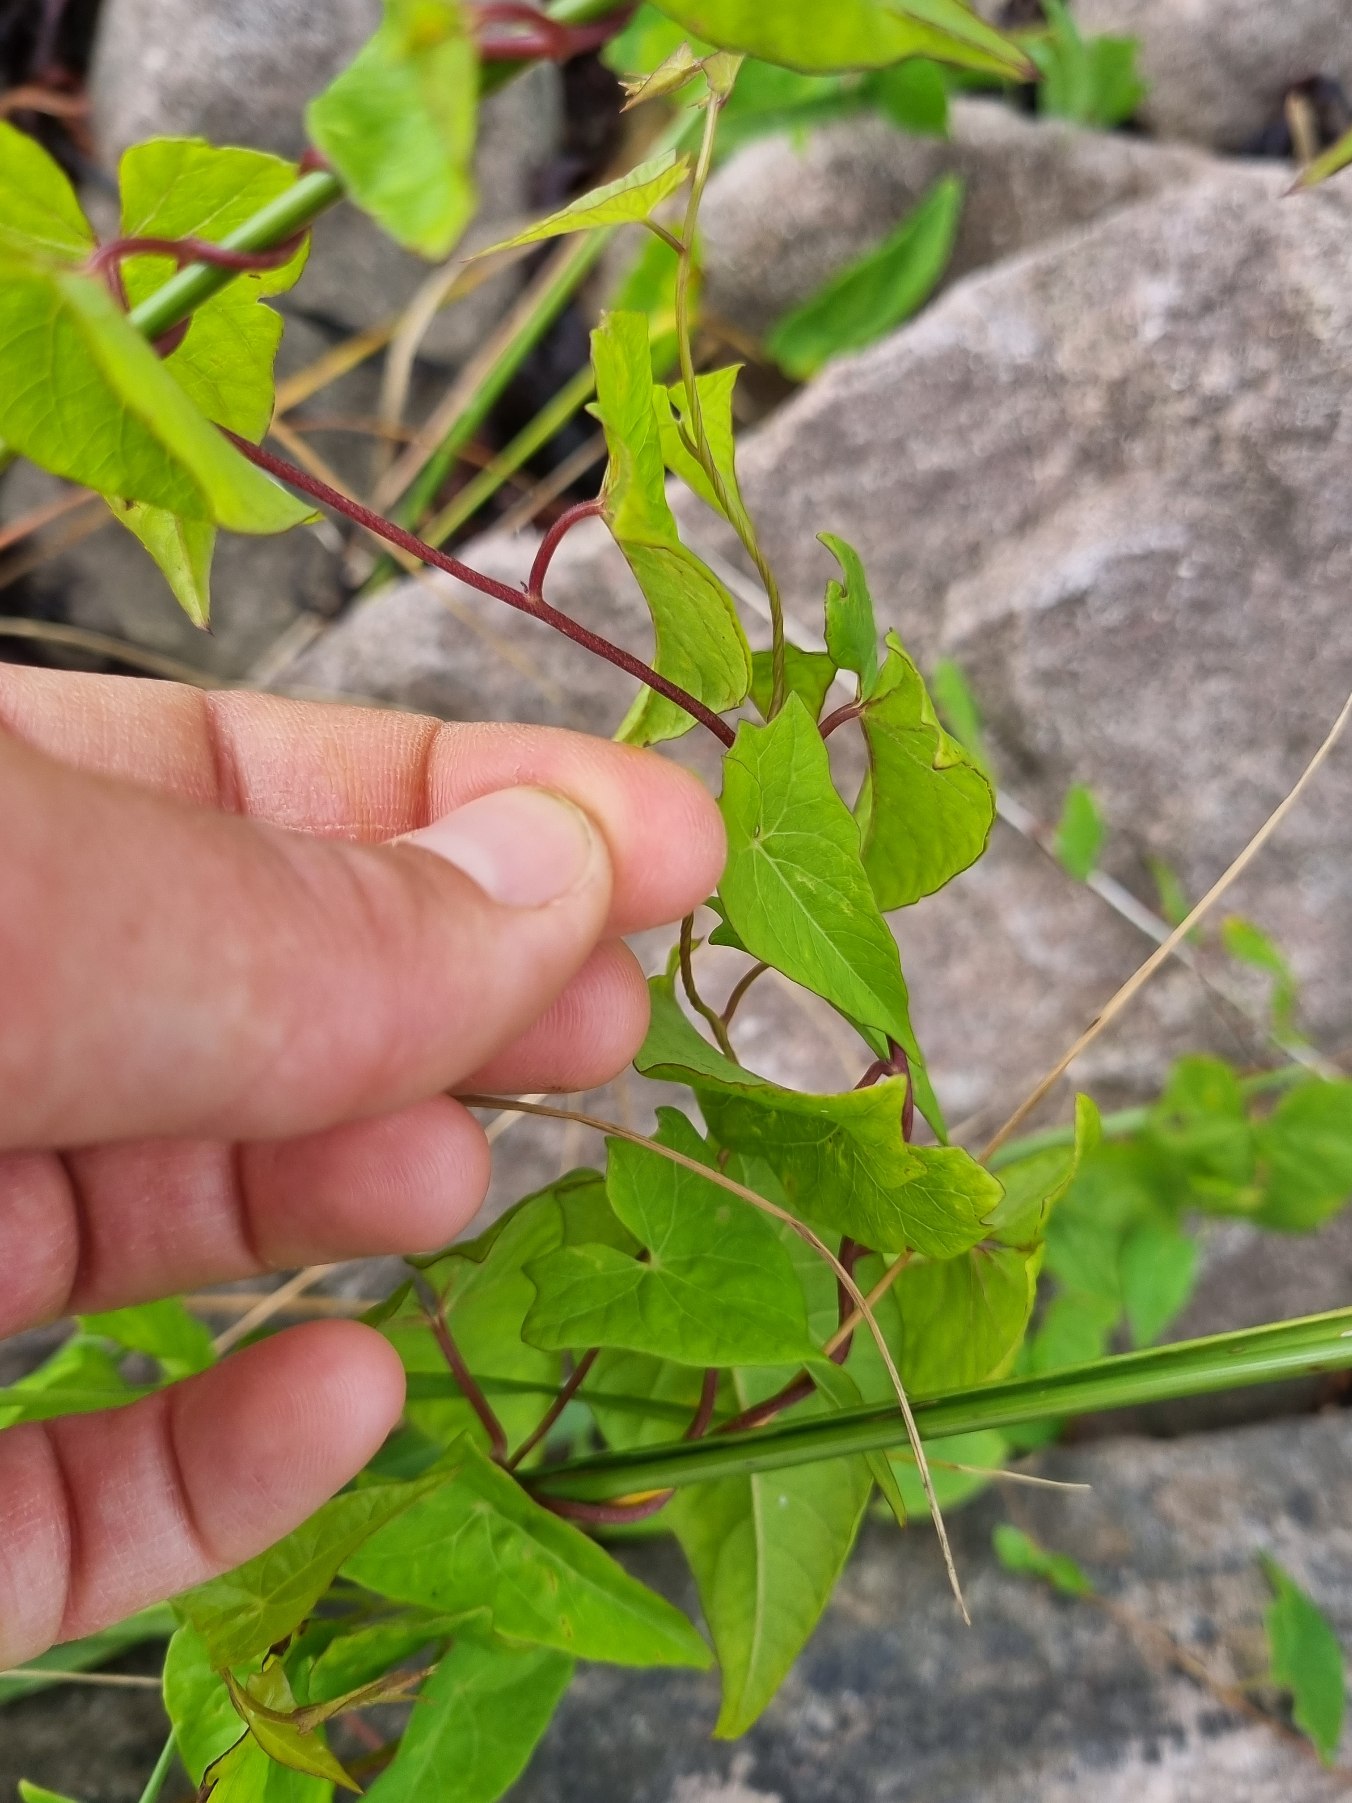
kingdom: Plantae
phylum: Tracheophyta
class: Magnoliopsida
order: Solanales
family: Convolvulaceae
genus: Calystegia
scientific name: Calystegia sepium
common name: Gærde-snerle
